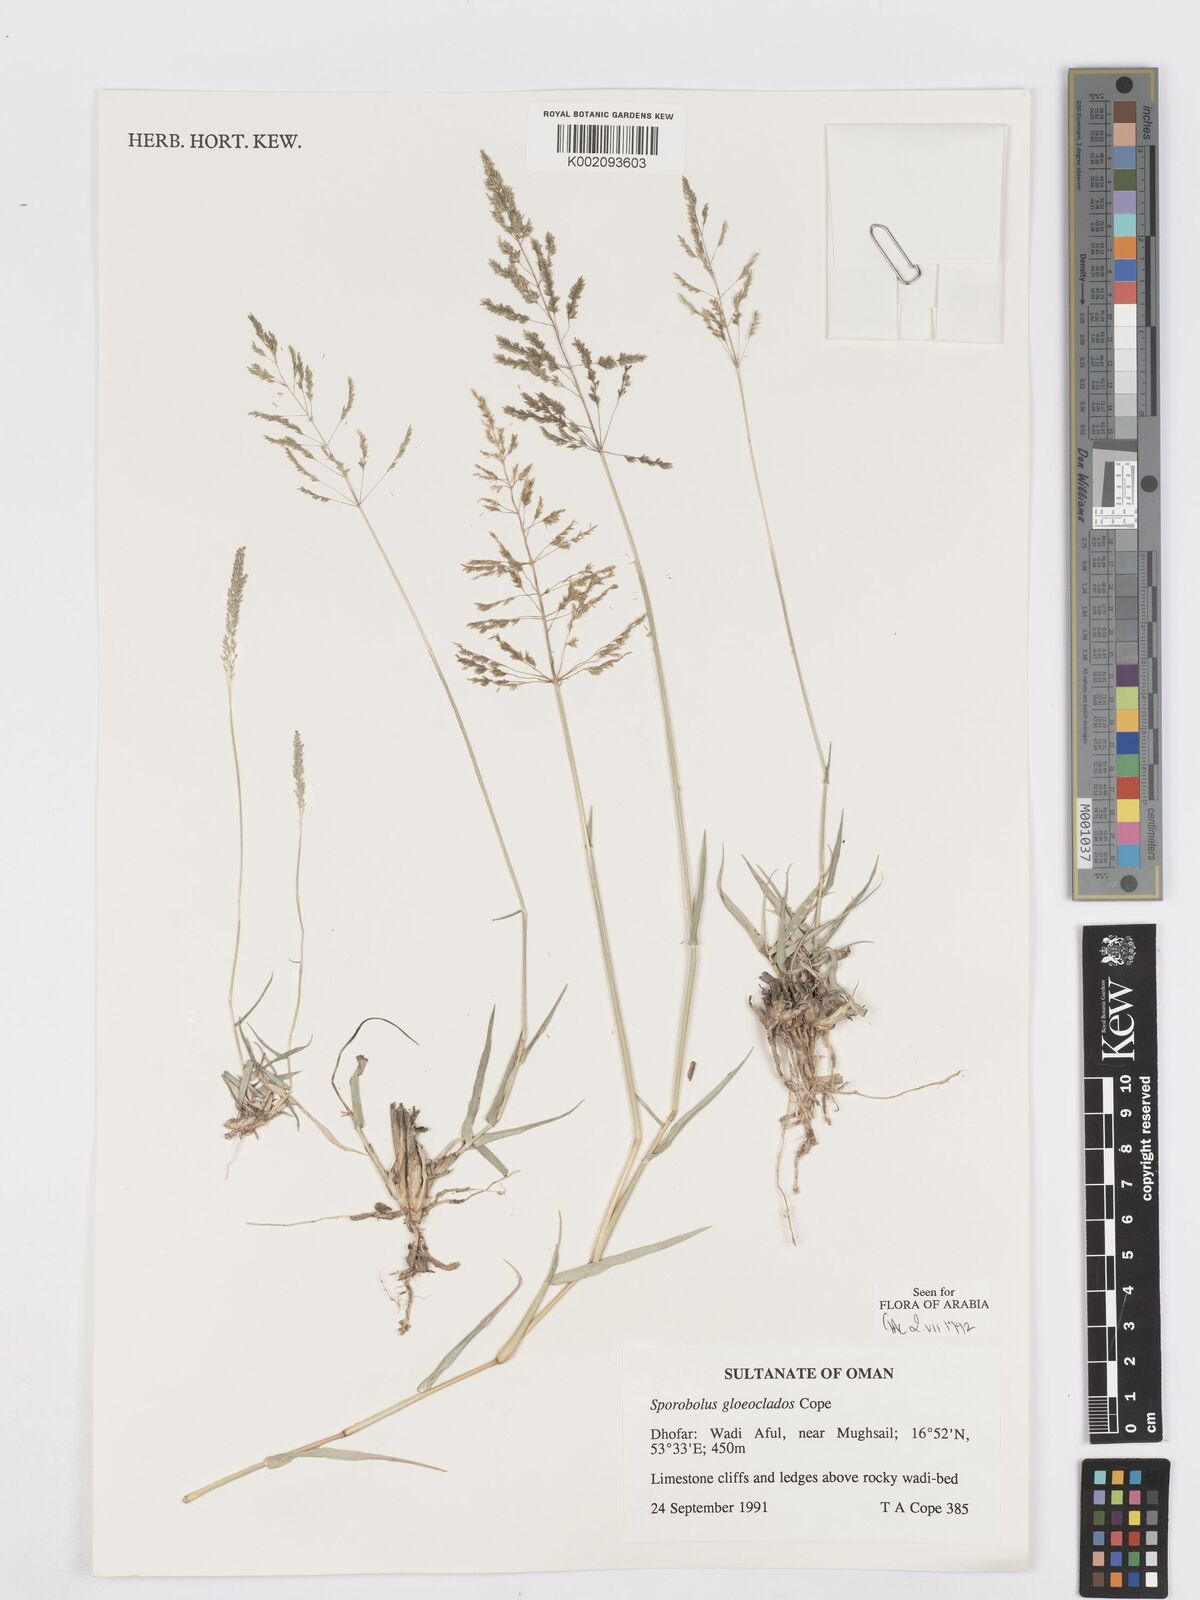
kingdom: Plantae
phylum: Tracheophyta
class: Liliopsida
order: Poales
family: Poaceae
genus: Sporobolus
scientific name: Sporobolus gloeoclados
